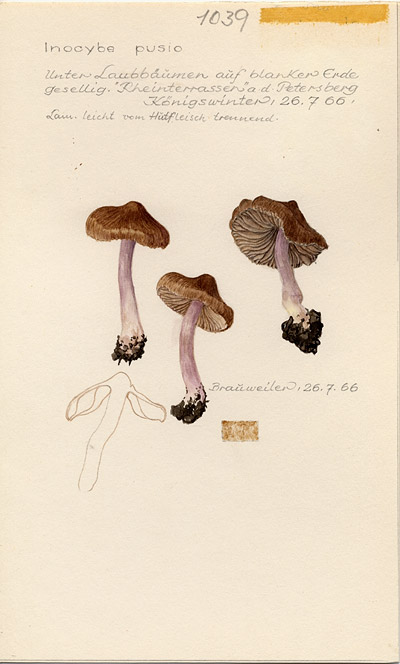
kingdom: Fungi
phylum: Basidiomycota
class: Agaricomycetes
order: Agaricales
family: Inocybaceae
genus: Inocybe
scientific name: Inocybe pusio
